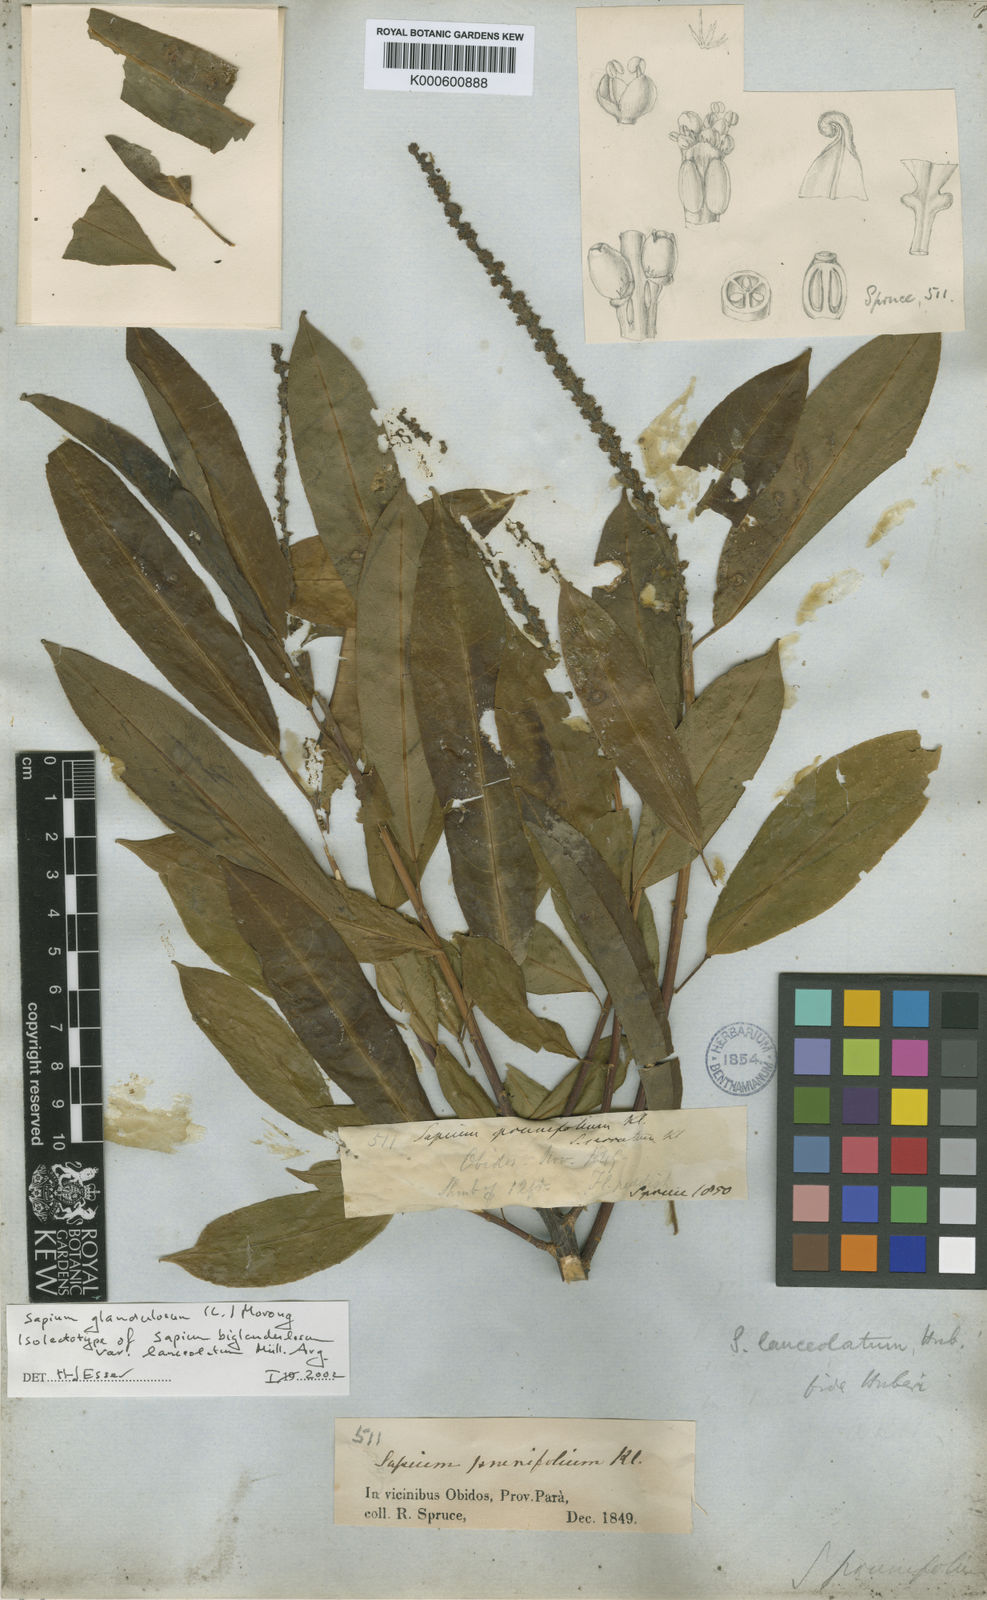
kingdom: Plantae
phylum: Tracheophyta
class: Magnoliopsida
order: Malpighiales
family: Euphorbiaceae
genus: Sapium
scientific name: Sapium glandulosum
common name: Milktree
